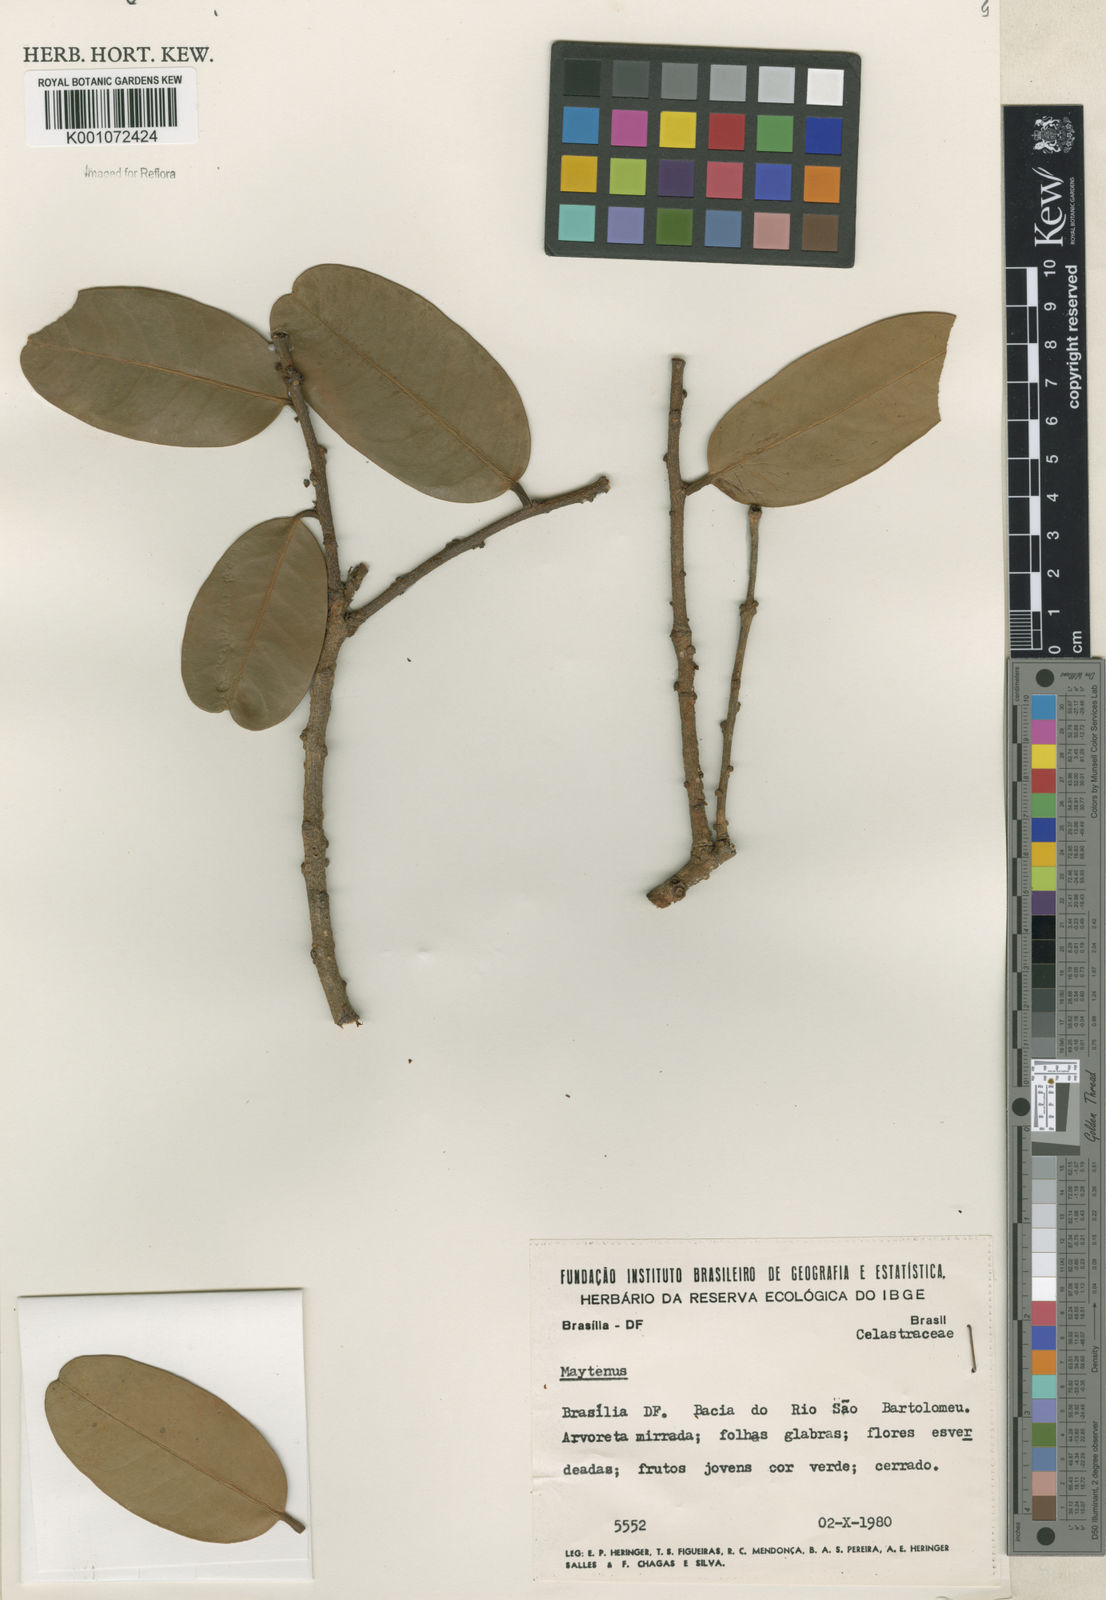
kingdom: Plantae
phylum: Tracheophyta
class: Magnoliopsida
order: Celastrales
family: Celastraceae
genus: Maytenus
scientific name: Maytenus
